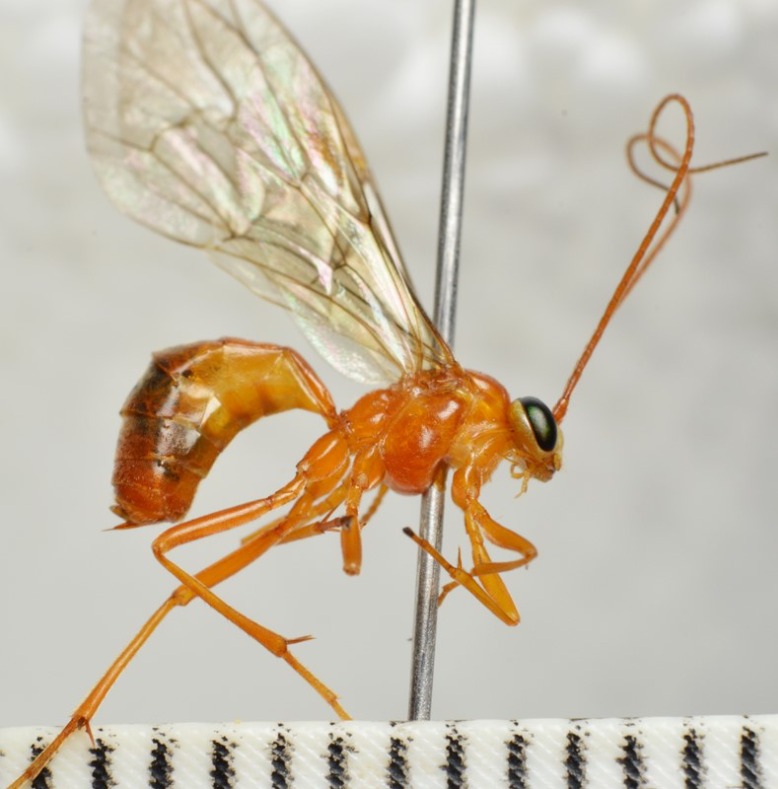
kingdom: Animalia
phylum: Arthropoda
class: Insecta
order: Hymenoptera
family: Ichneumonidae
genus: Netelia
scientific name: Netelia latungula
